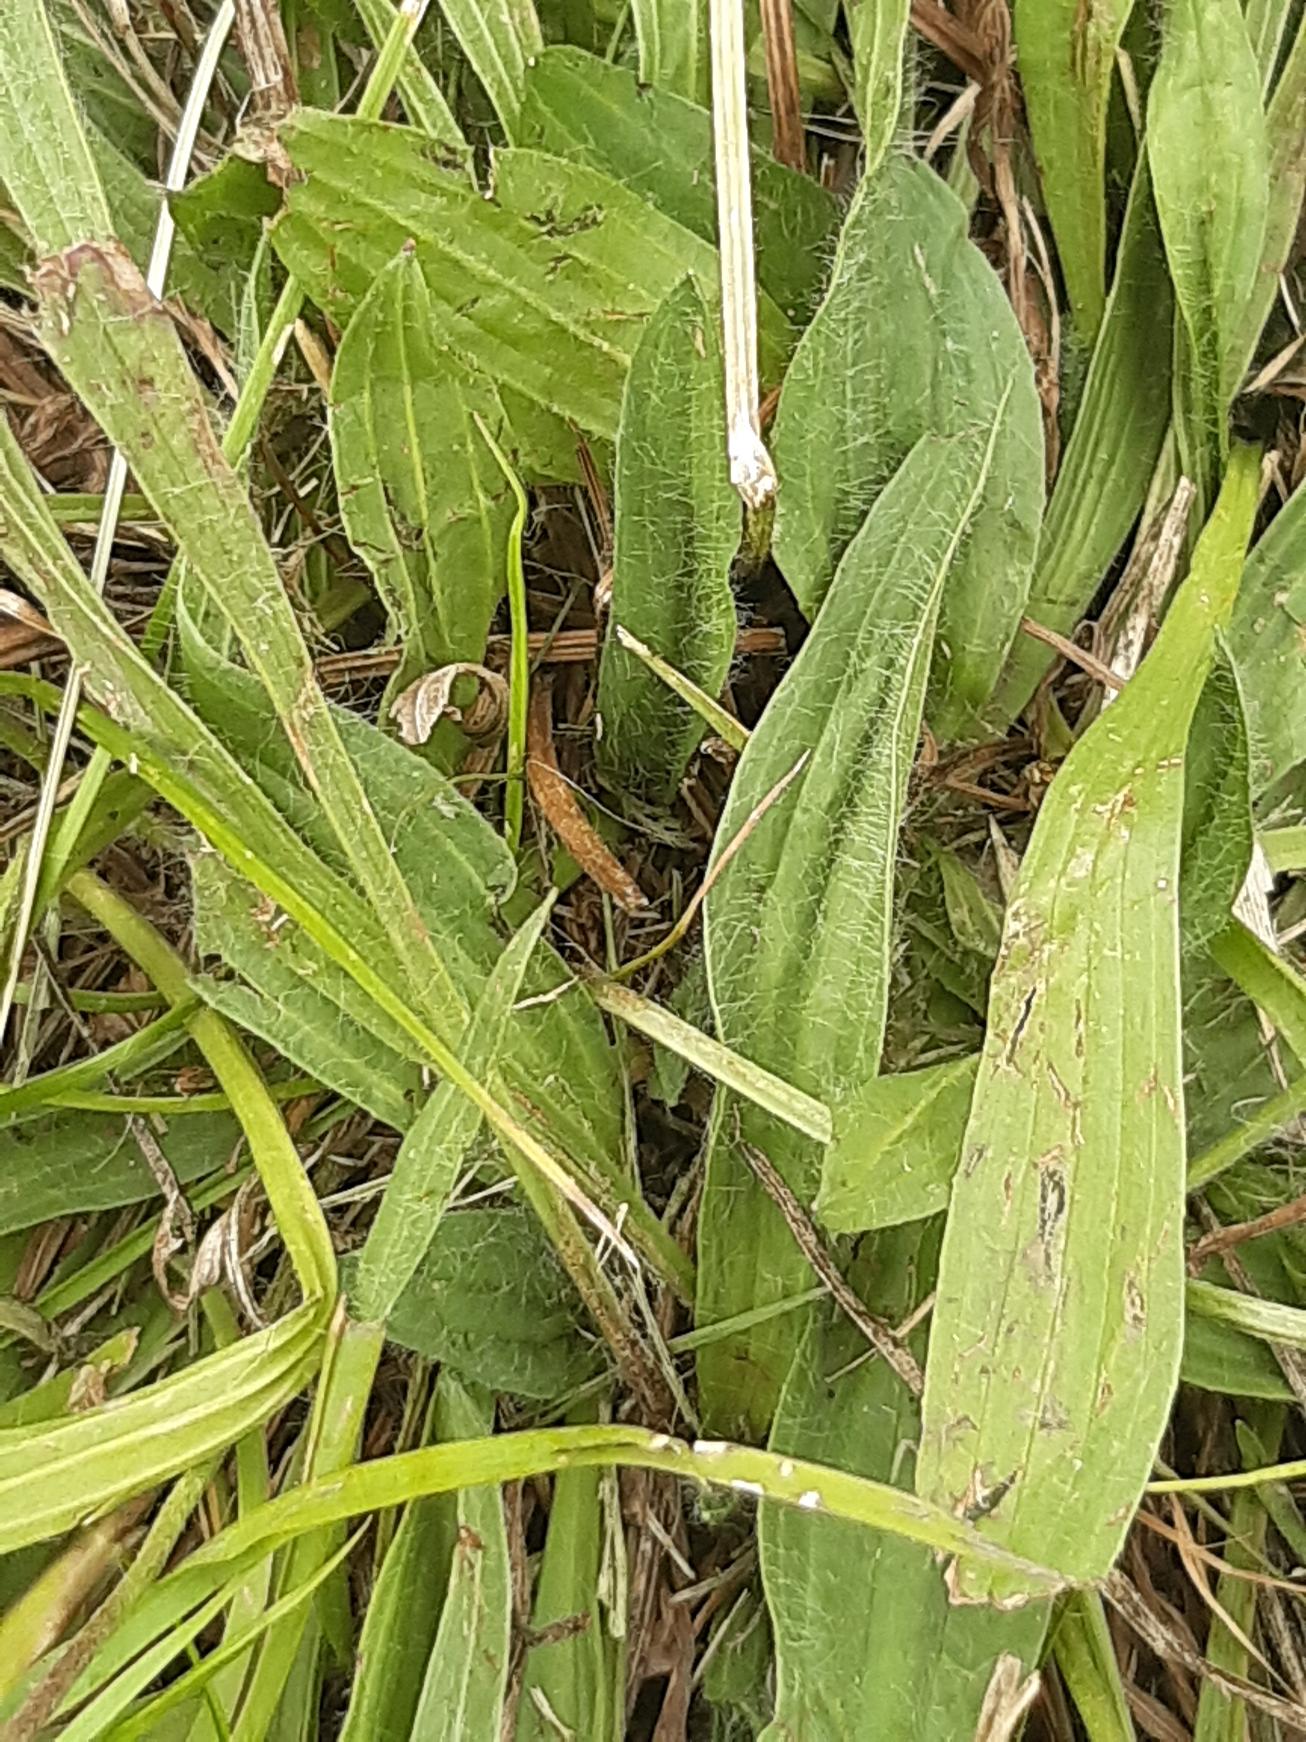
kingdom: Plantae
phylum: Tracheophyta
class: Magnoliopsida
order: Lamiales
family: Plantaginaceae
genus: Plantago
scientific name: Plantago lanceolata
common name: Lancet-vejbred
